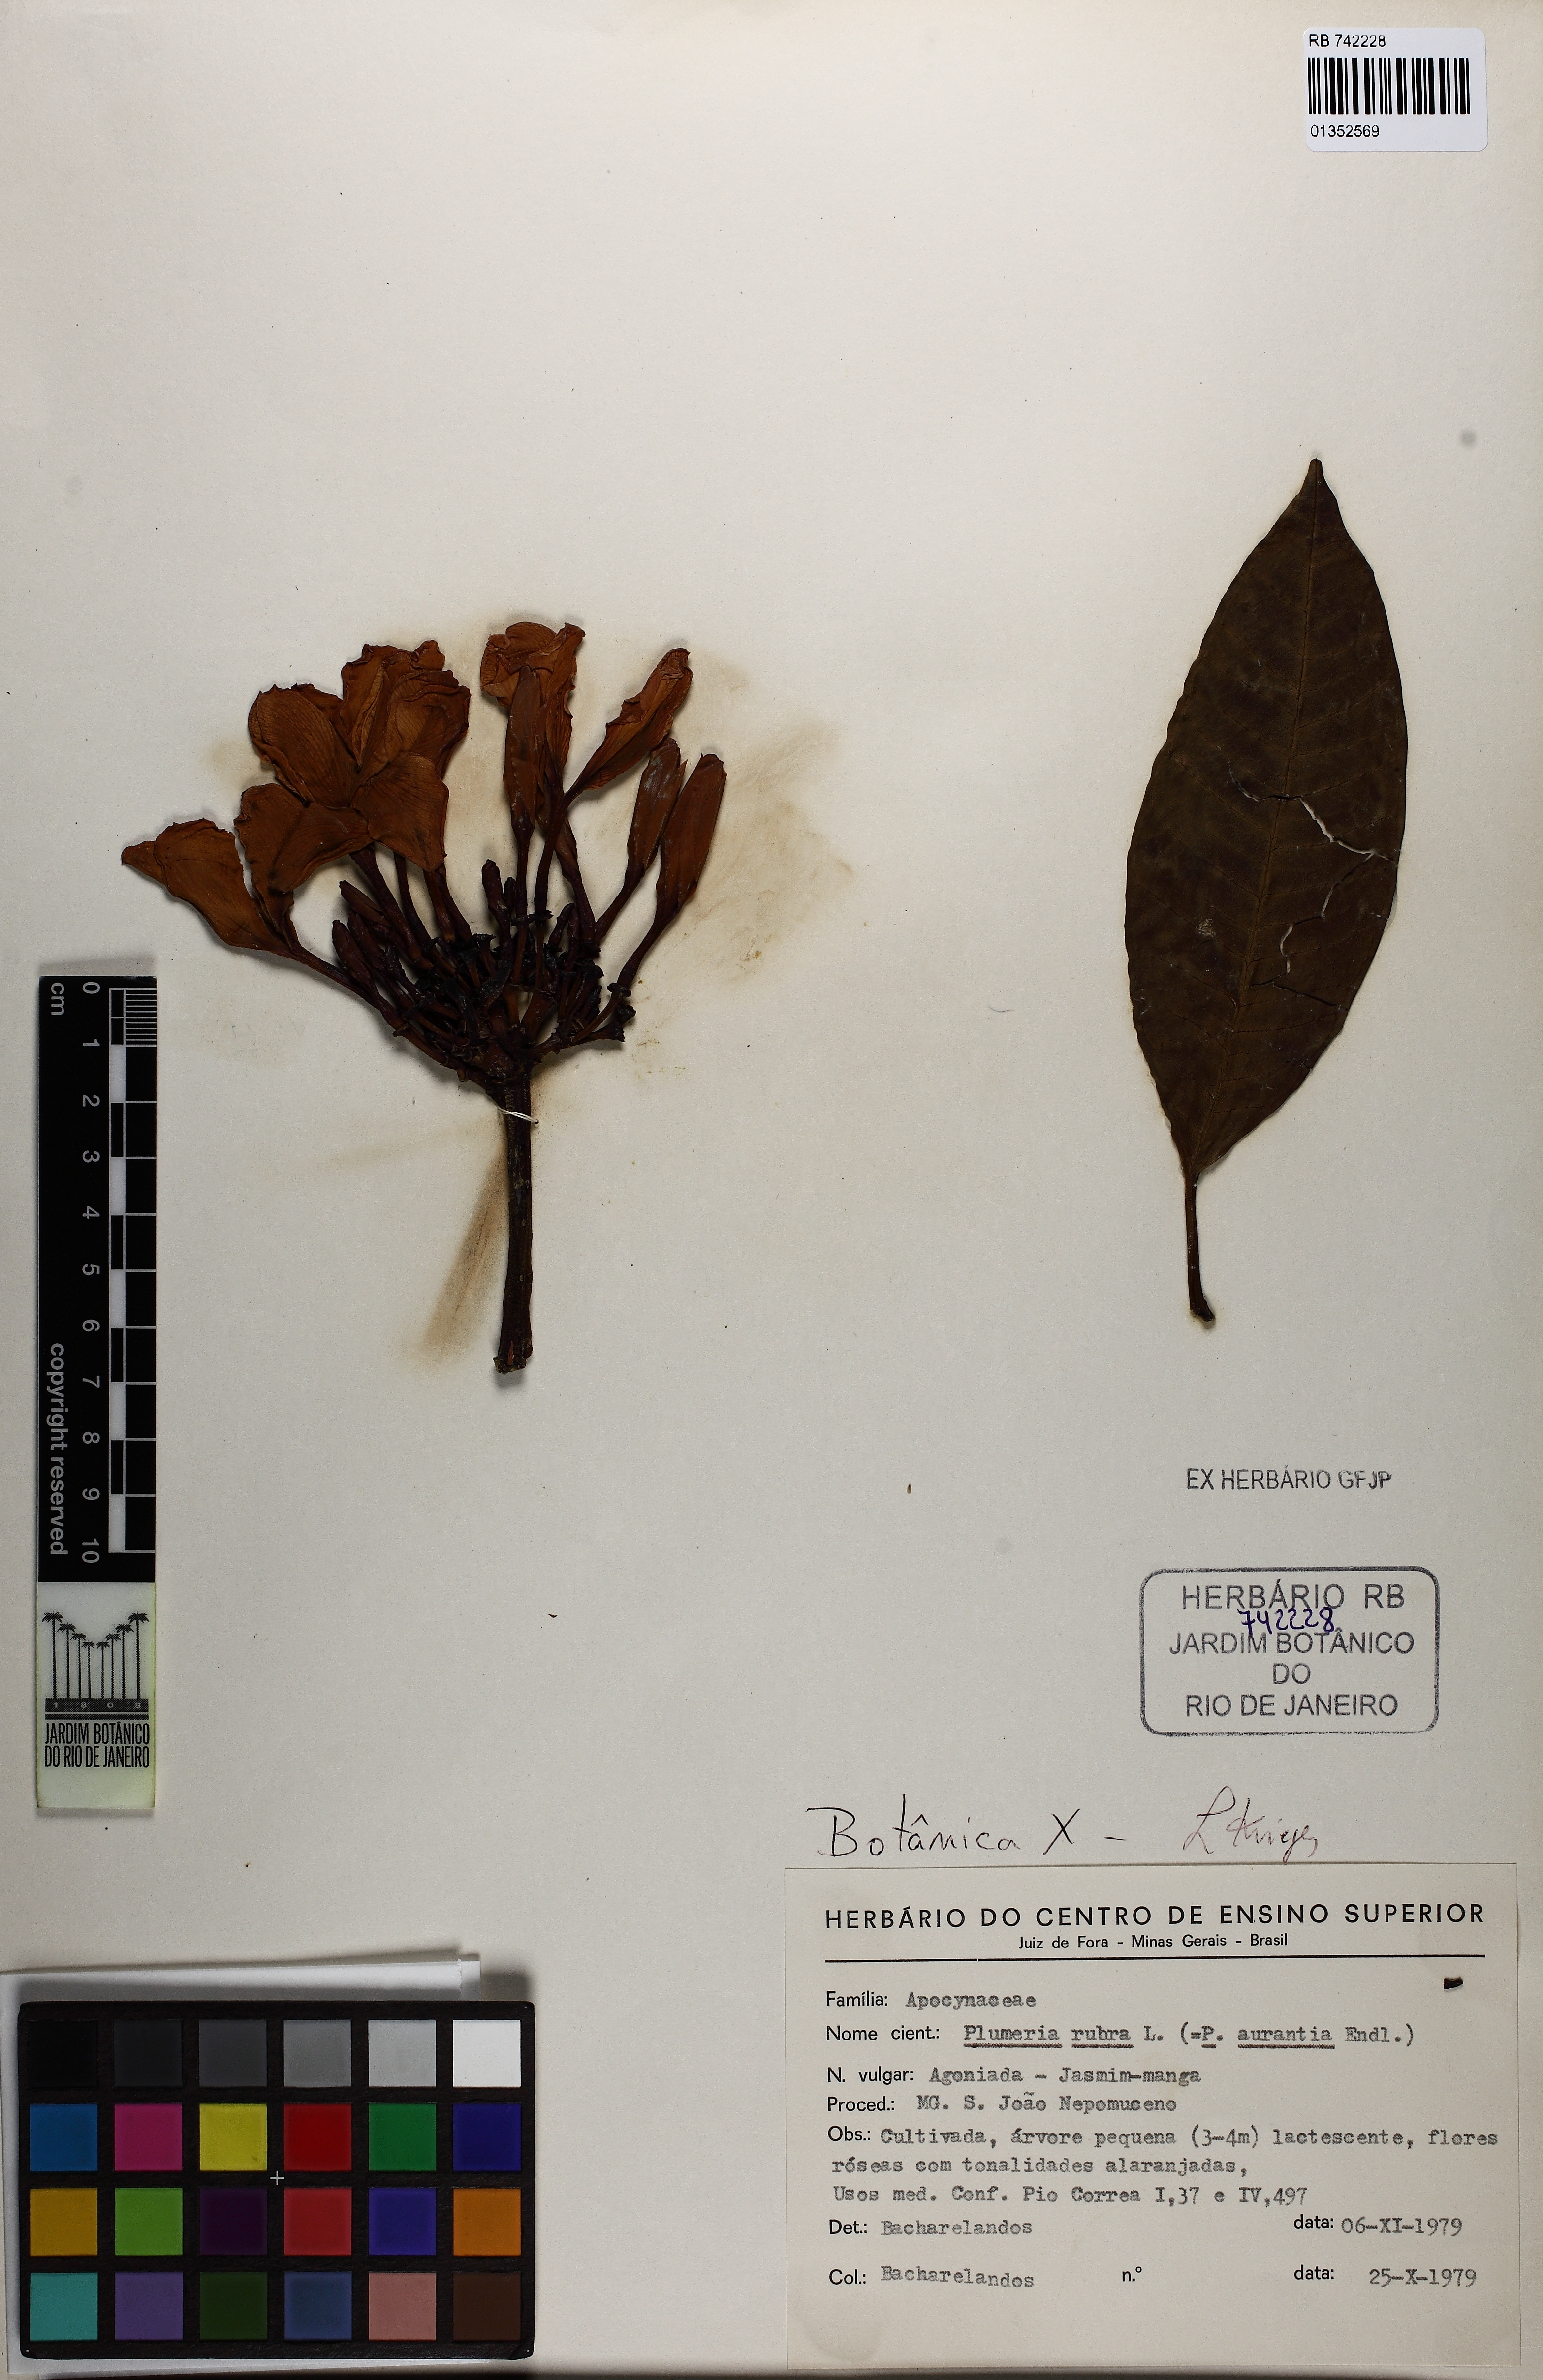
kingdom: Plantae
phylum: Tracheophyta
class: Magnoliopsida
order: Gentianales
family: Apocynaceae
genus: Plumeria
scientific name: Plumeria rubra
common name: Pagoda-tree
